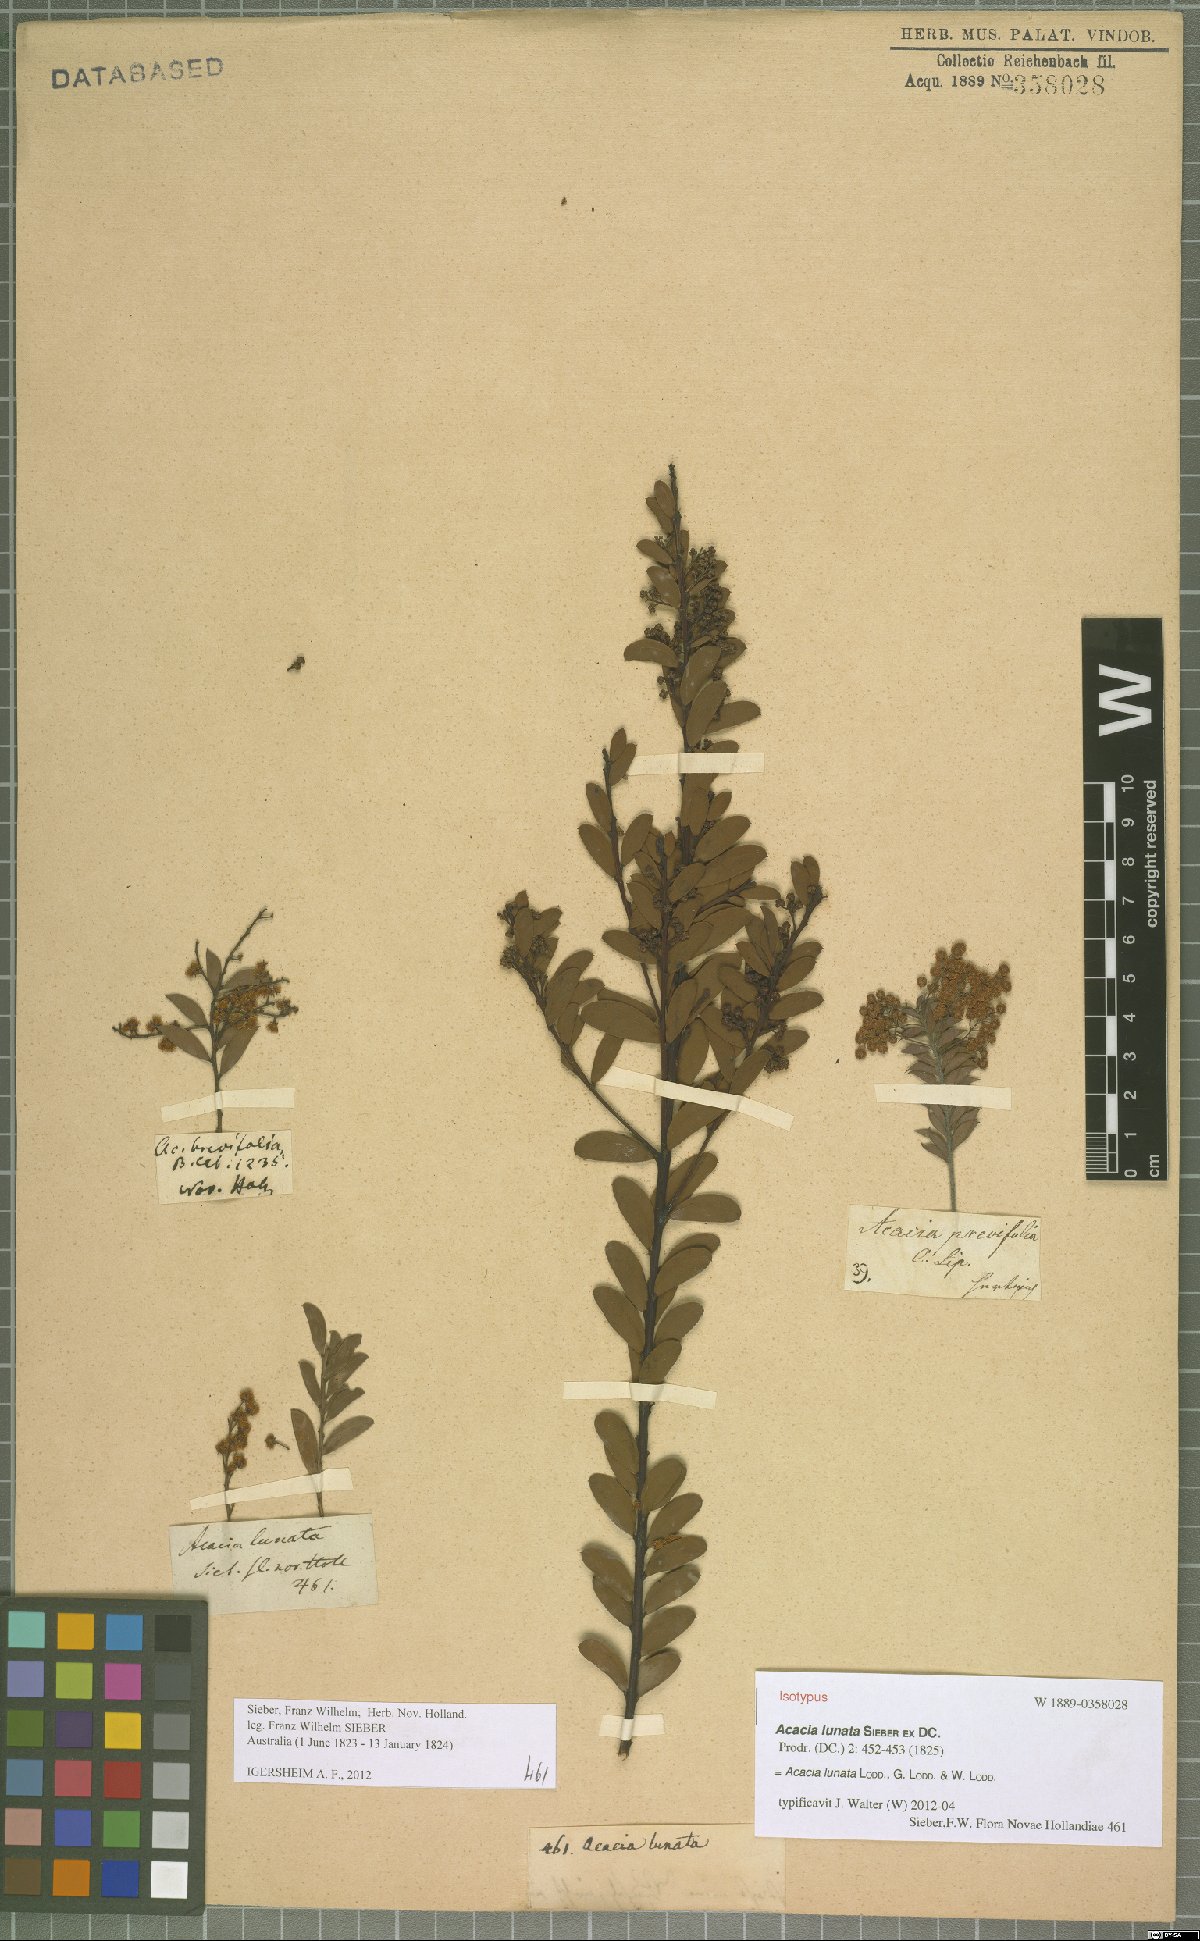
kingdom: Plantae
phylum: Tracheophyta
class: Magnoliopsida
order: Fabales
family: Fabaceae
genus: Acacia
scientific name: Acacia lunata
